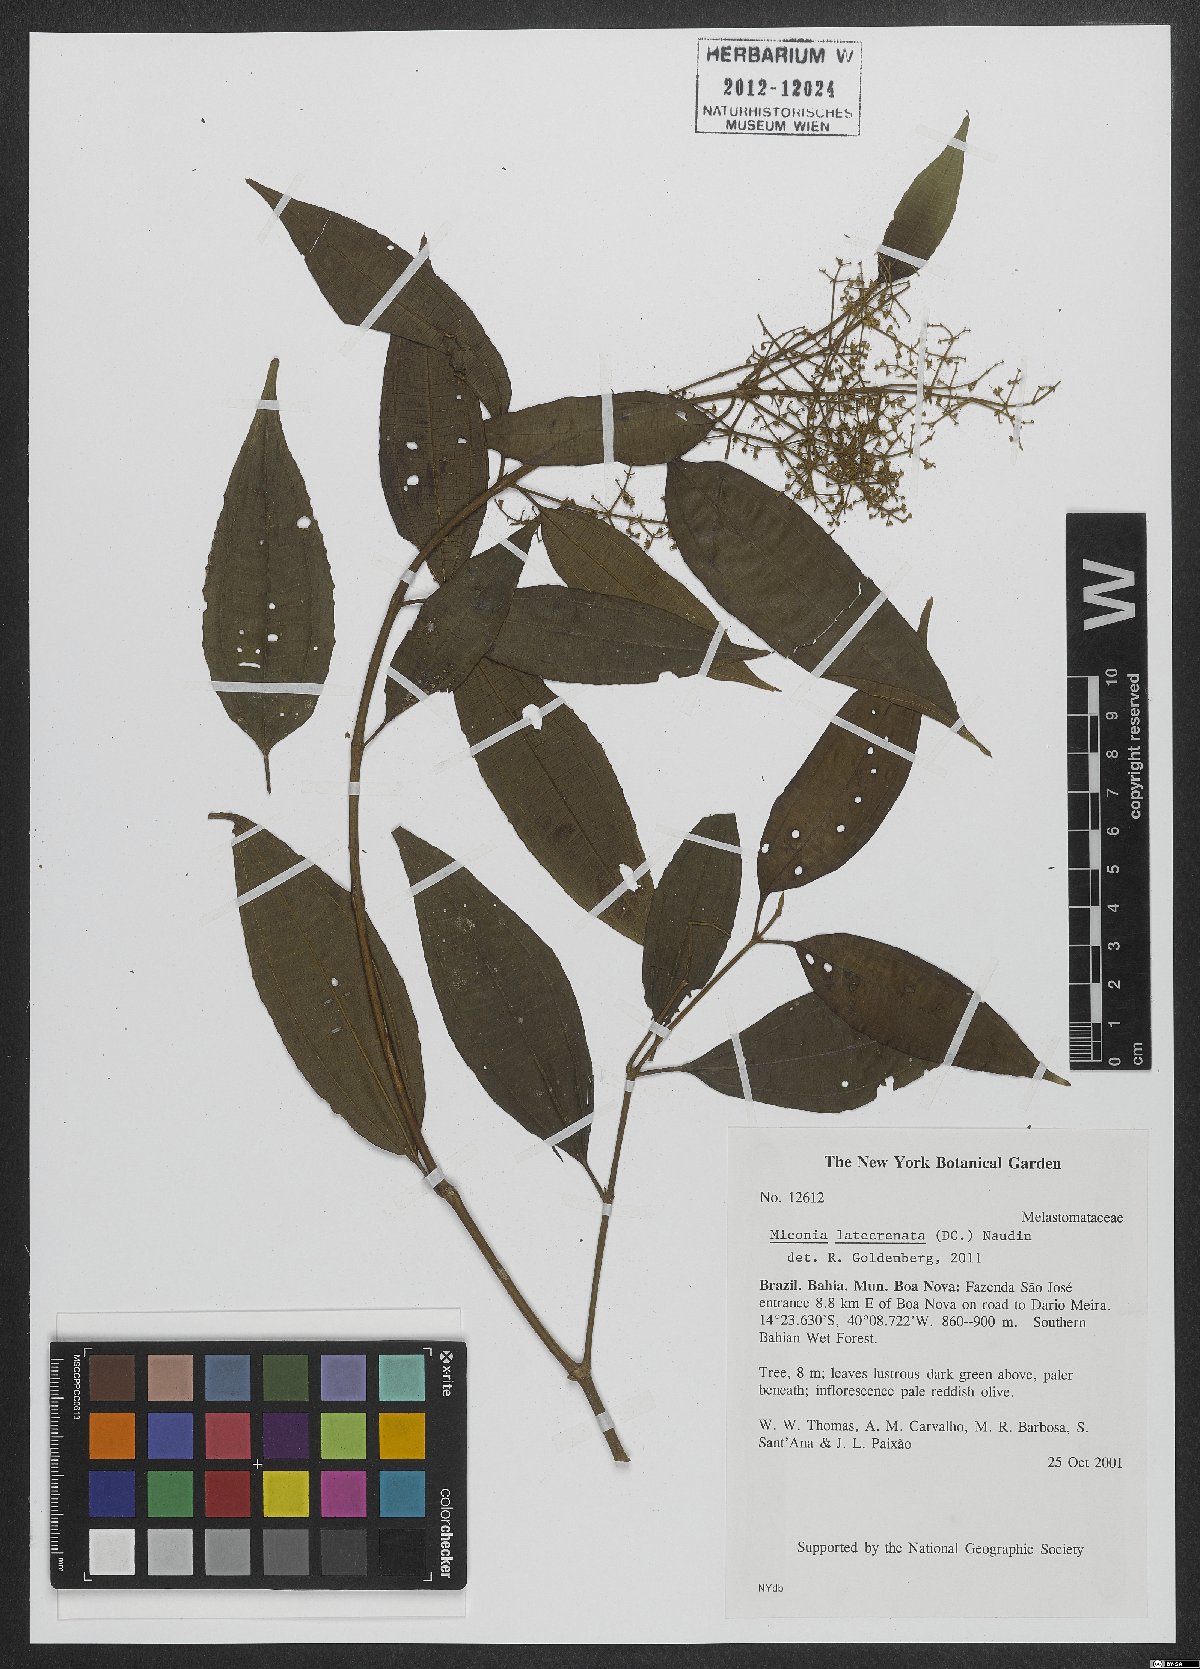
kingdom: Plantae
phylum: Tracheophyta
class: Magnoliopsida
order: Myrtales
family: Melastomataceae
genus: Miconia
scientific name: Miconia latecrenata
